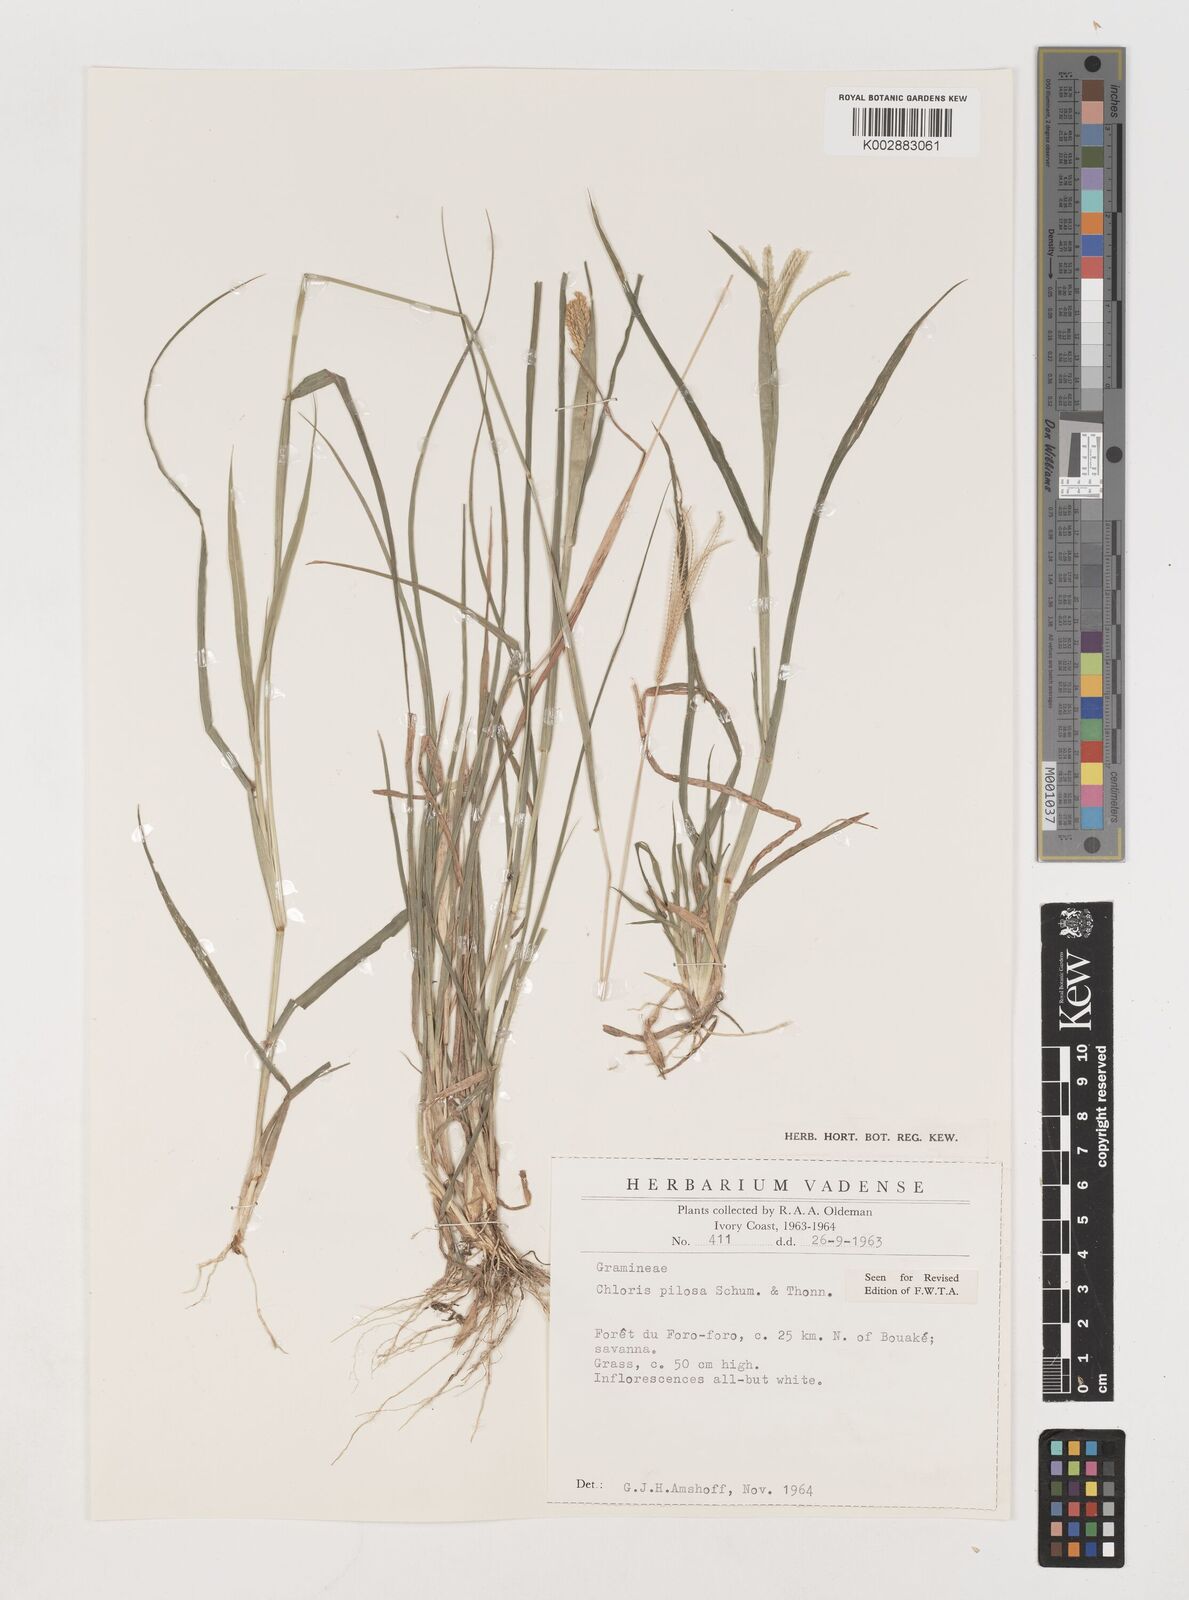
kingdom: Plantae
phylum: Tracheophyta
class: Liliopsida
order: Poales
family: Poaceae
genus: Chloris
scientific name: Chloris pilosa
